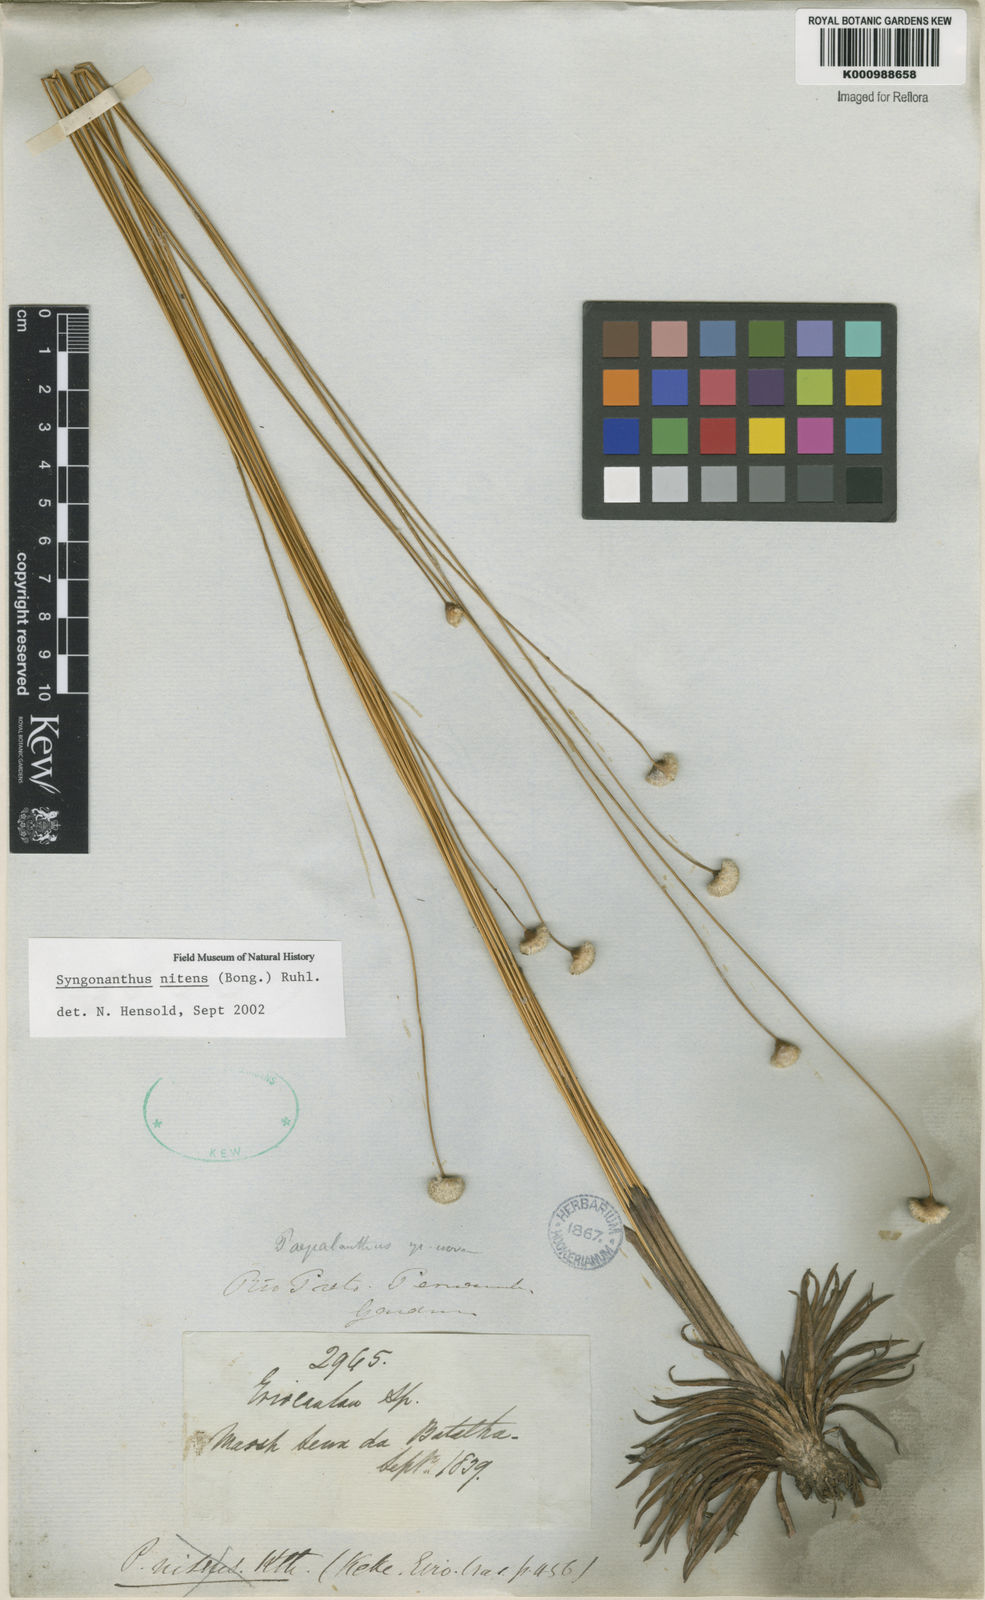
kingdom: Plantae
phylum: Tracheophyta
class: Liliopsida
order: Poales
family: Eriocaulaceae
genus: Syngonanthus
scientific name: Syngonanthus nitens
